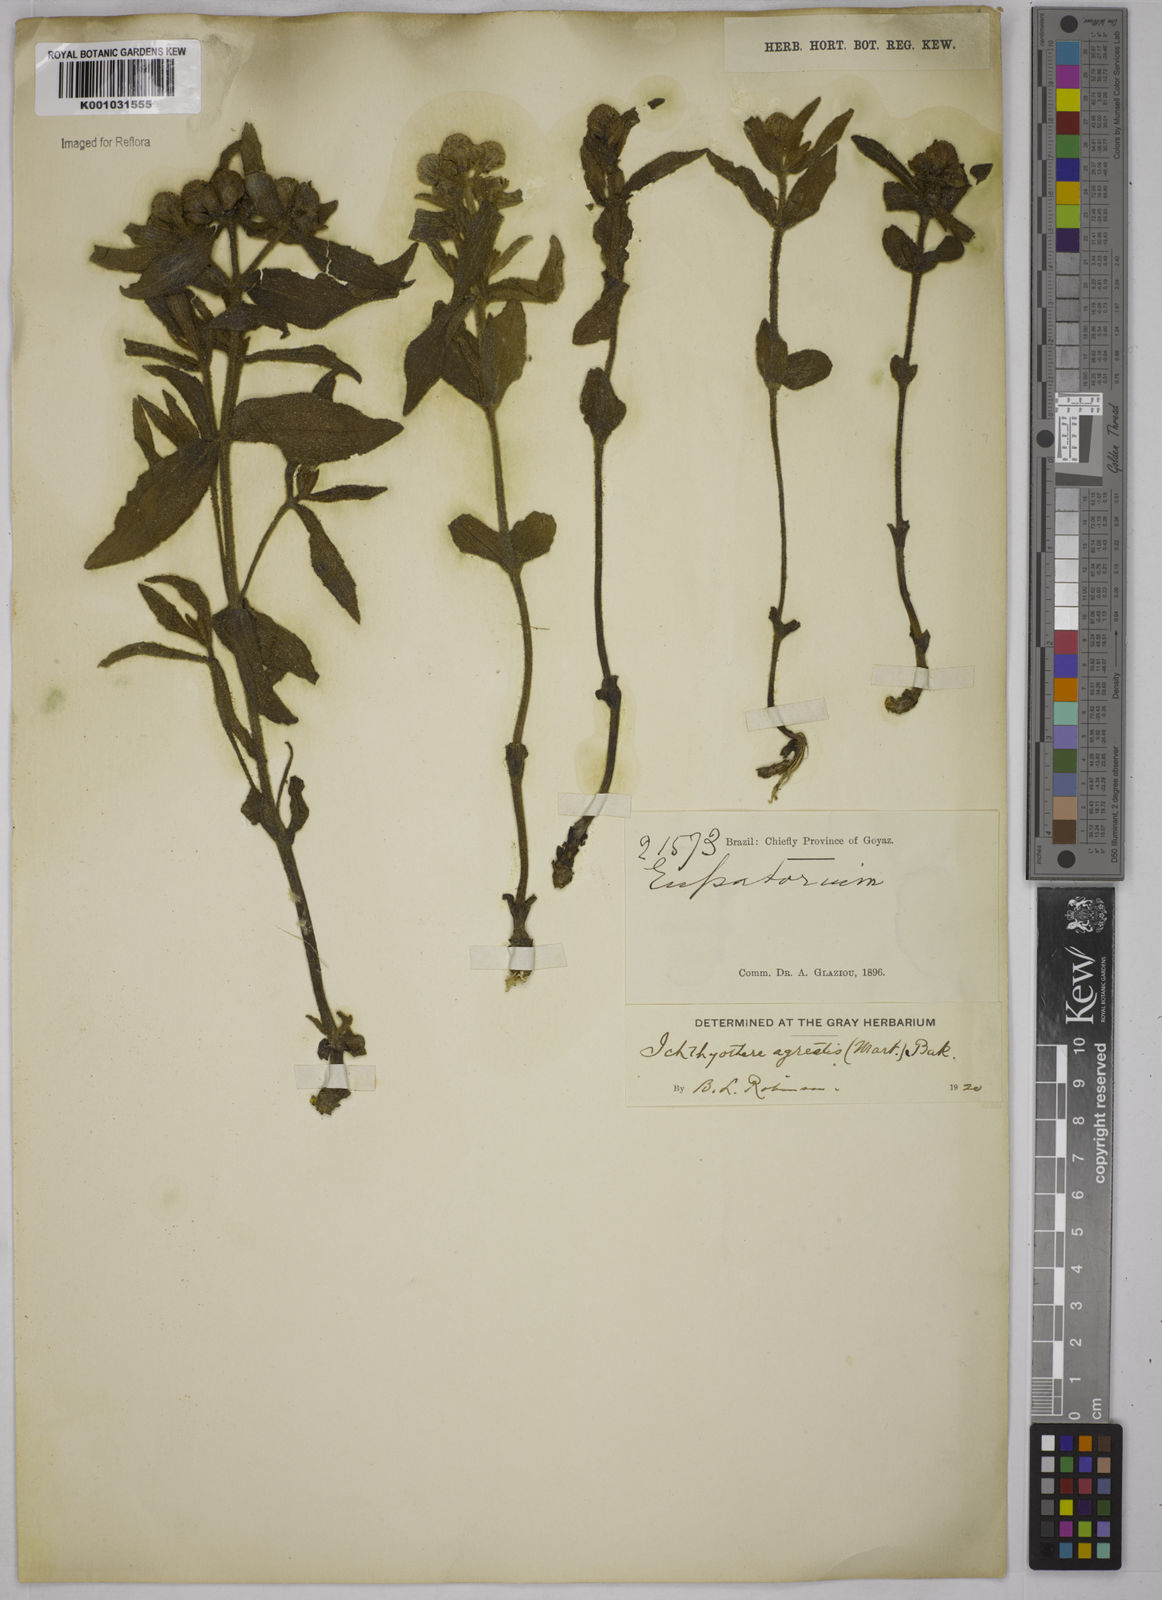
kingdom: Plantae
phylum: Tracheophyta
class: Magnoliopsida
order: Asterales
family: Asteraceae
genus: Ichthyothere
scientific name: Ichthyothere integrifolia
